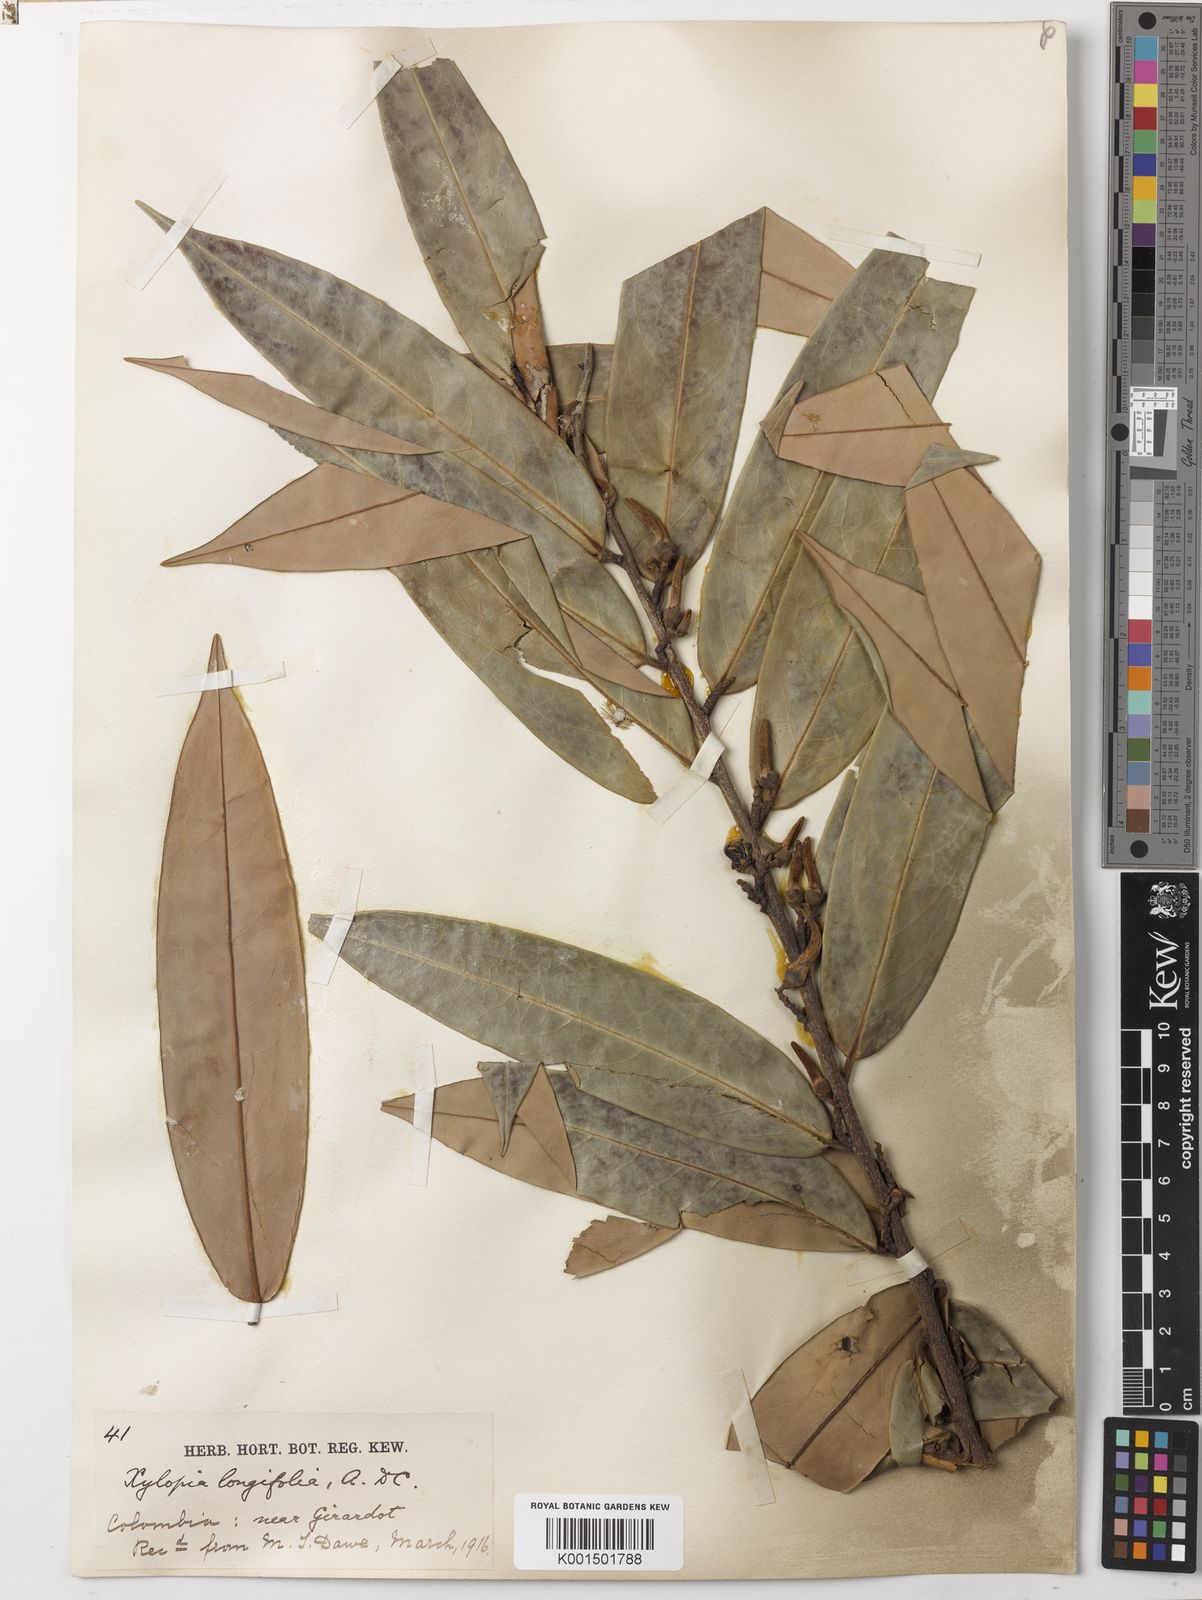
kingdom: Plantae
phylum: Tracheophyta
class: Magnoliopsida
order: Magnoliales
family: Annonaceae
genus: Xylopia
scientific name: Xylopia aromatica
